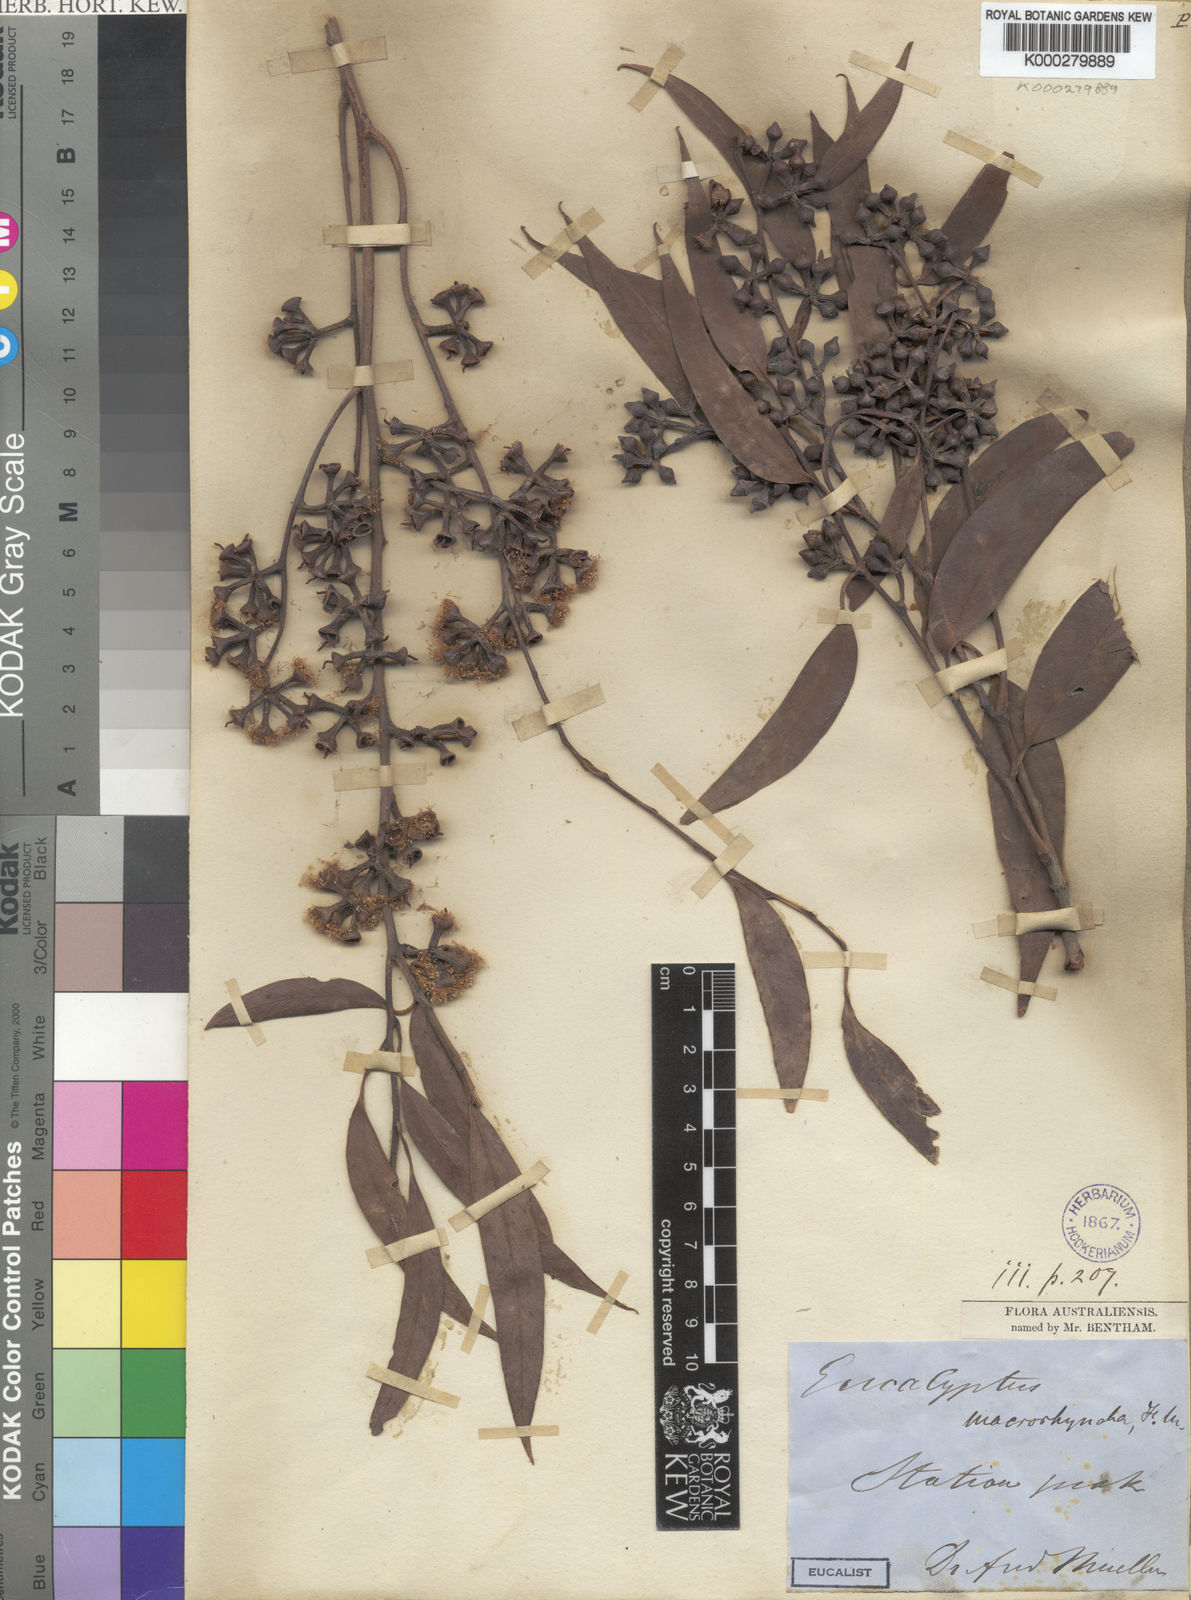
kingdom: Plantae
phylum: Tracheophyta
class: Magnoliopsida
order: Myrtales
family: Myrtaceae
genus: Eucalyptus
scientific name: Eucalyptus macrorhyncha
